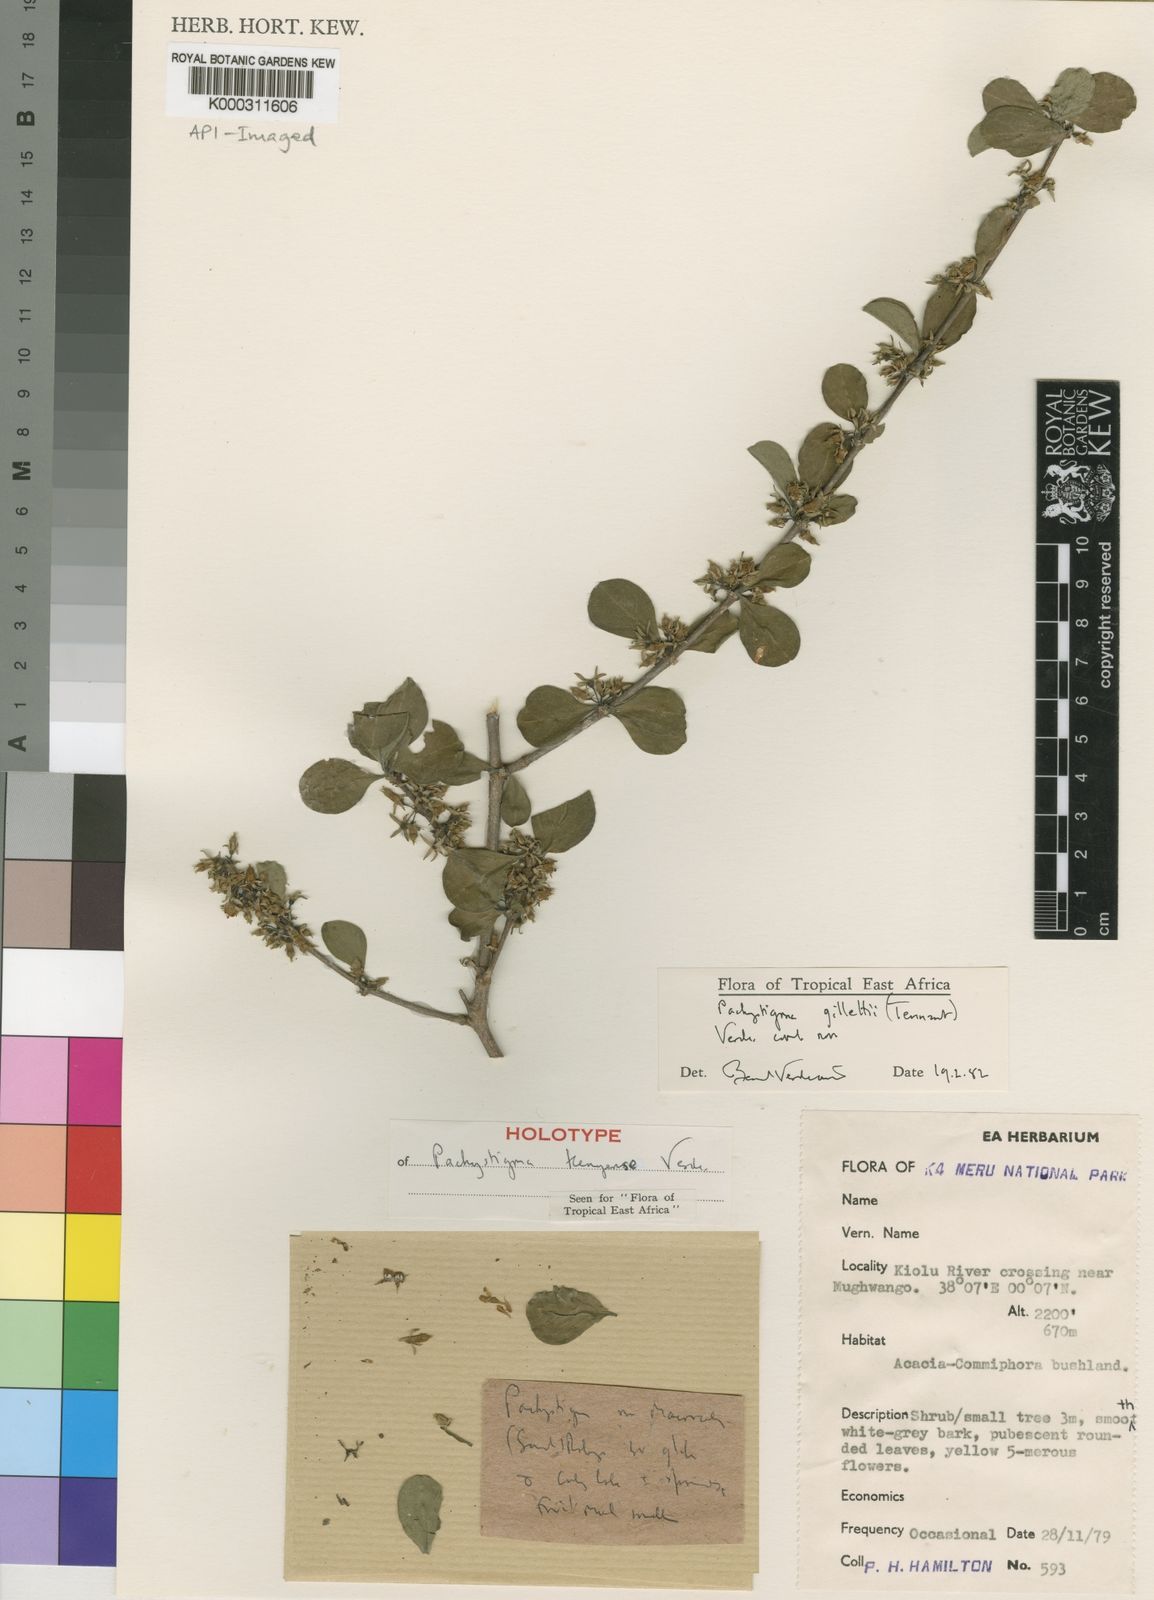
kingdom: Plantae
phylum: Tracheophyta
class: Magnoliopsida
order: Gentianales
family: Rubiaceae
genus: Vangueria
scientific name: Vangueria gillettii
